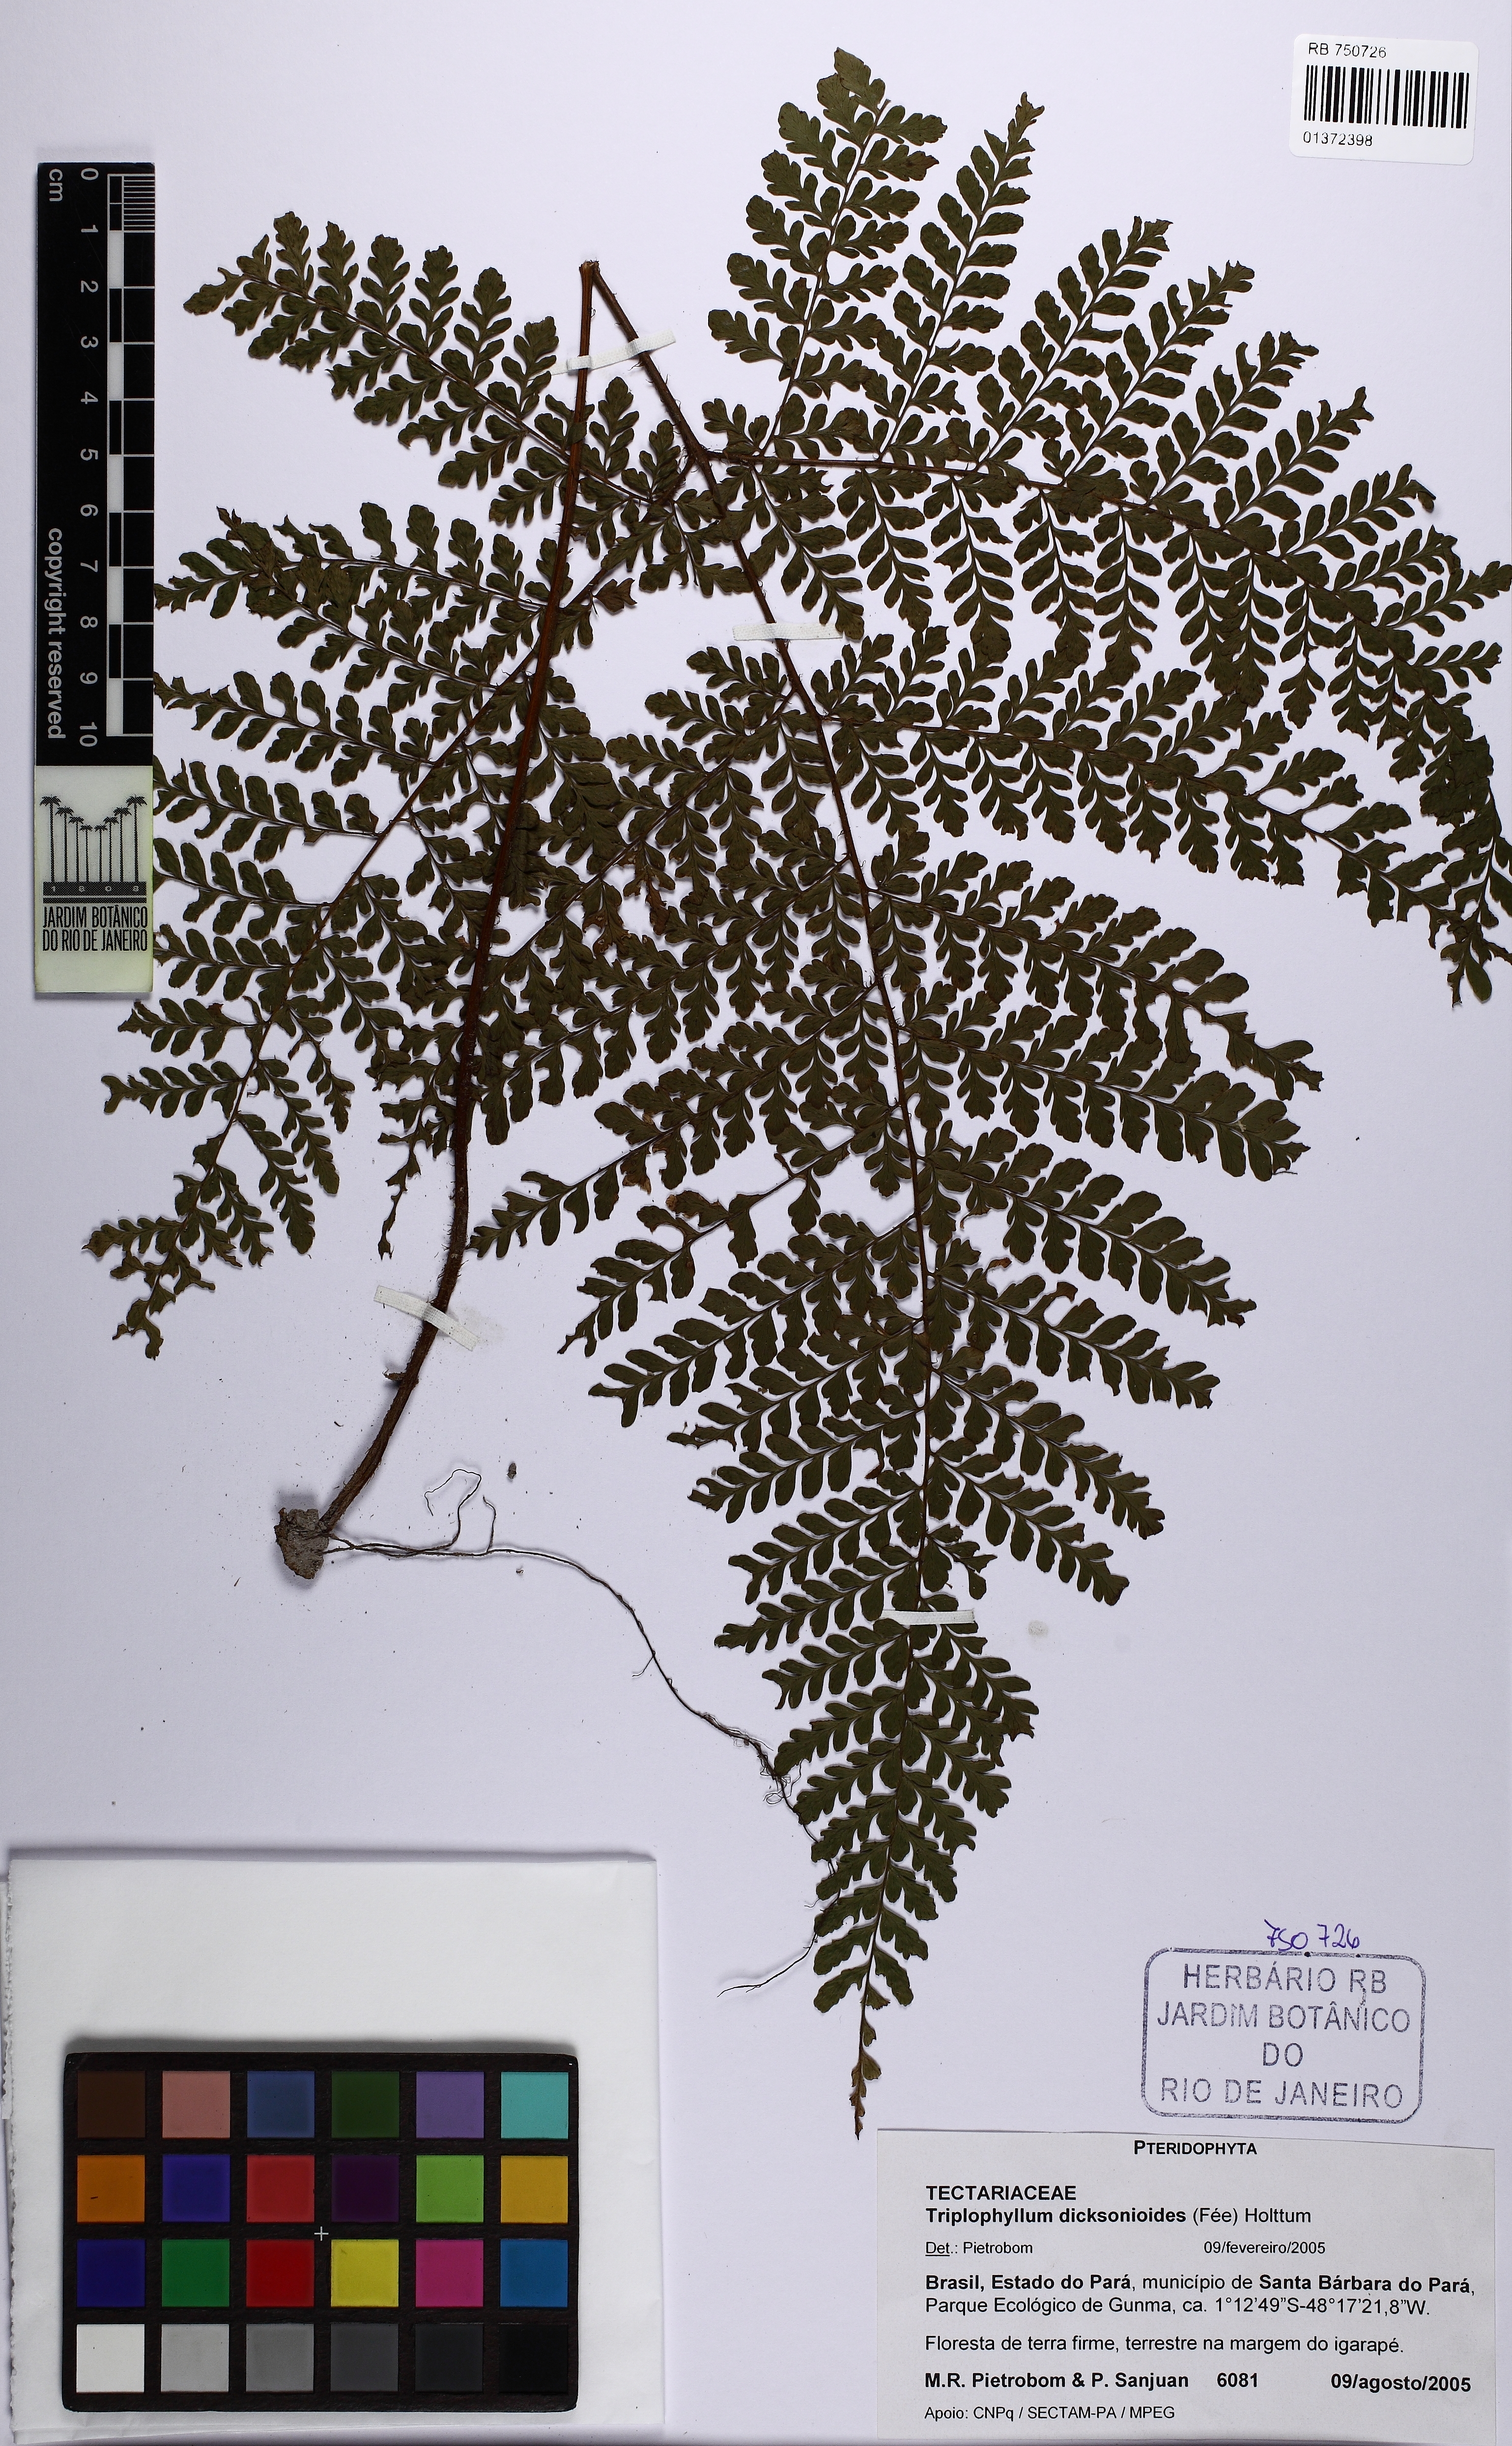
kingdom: Plantae
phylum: Tracheophyta
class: Polypodiopsida
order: Polypodiales
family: Tectariaceae
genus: Triplophyllum
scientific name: Triplophyllum dicksonioides
